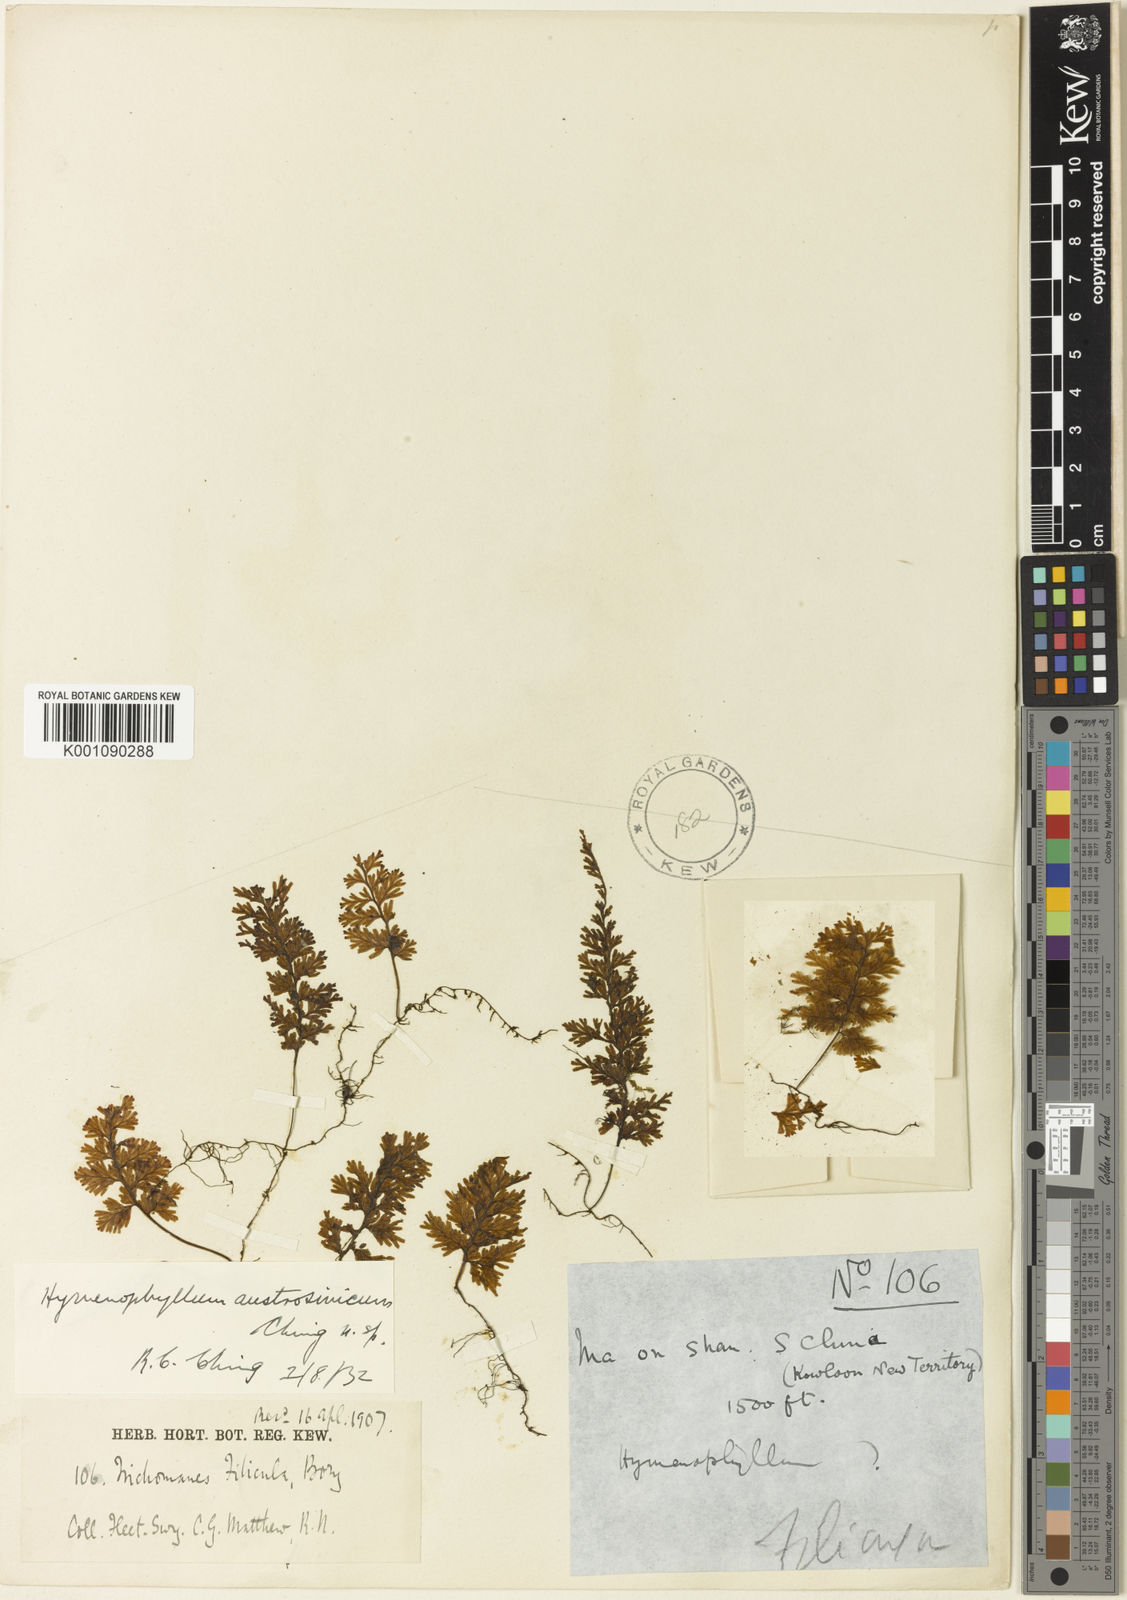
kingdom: Plantae
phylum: Tracheophyta
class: Polypodiopsida
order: Hymenophyllales
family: Hymenophyllaceae
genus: Hymenophyllum
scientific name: Hymenophyllum exsertum
